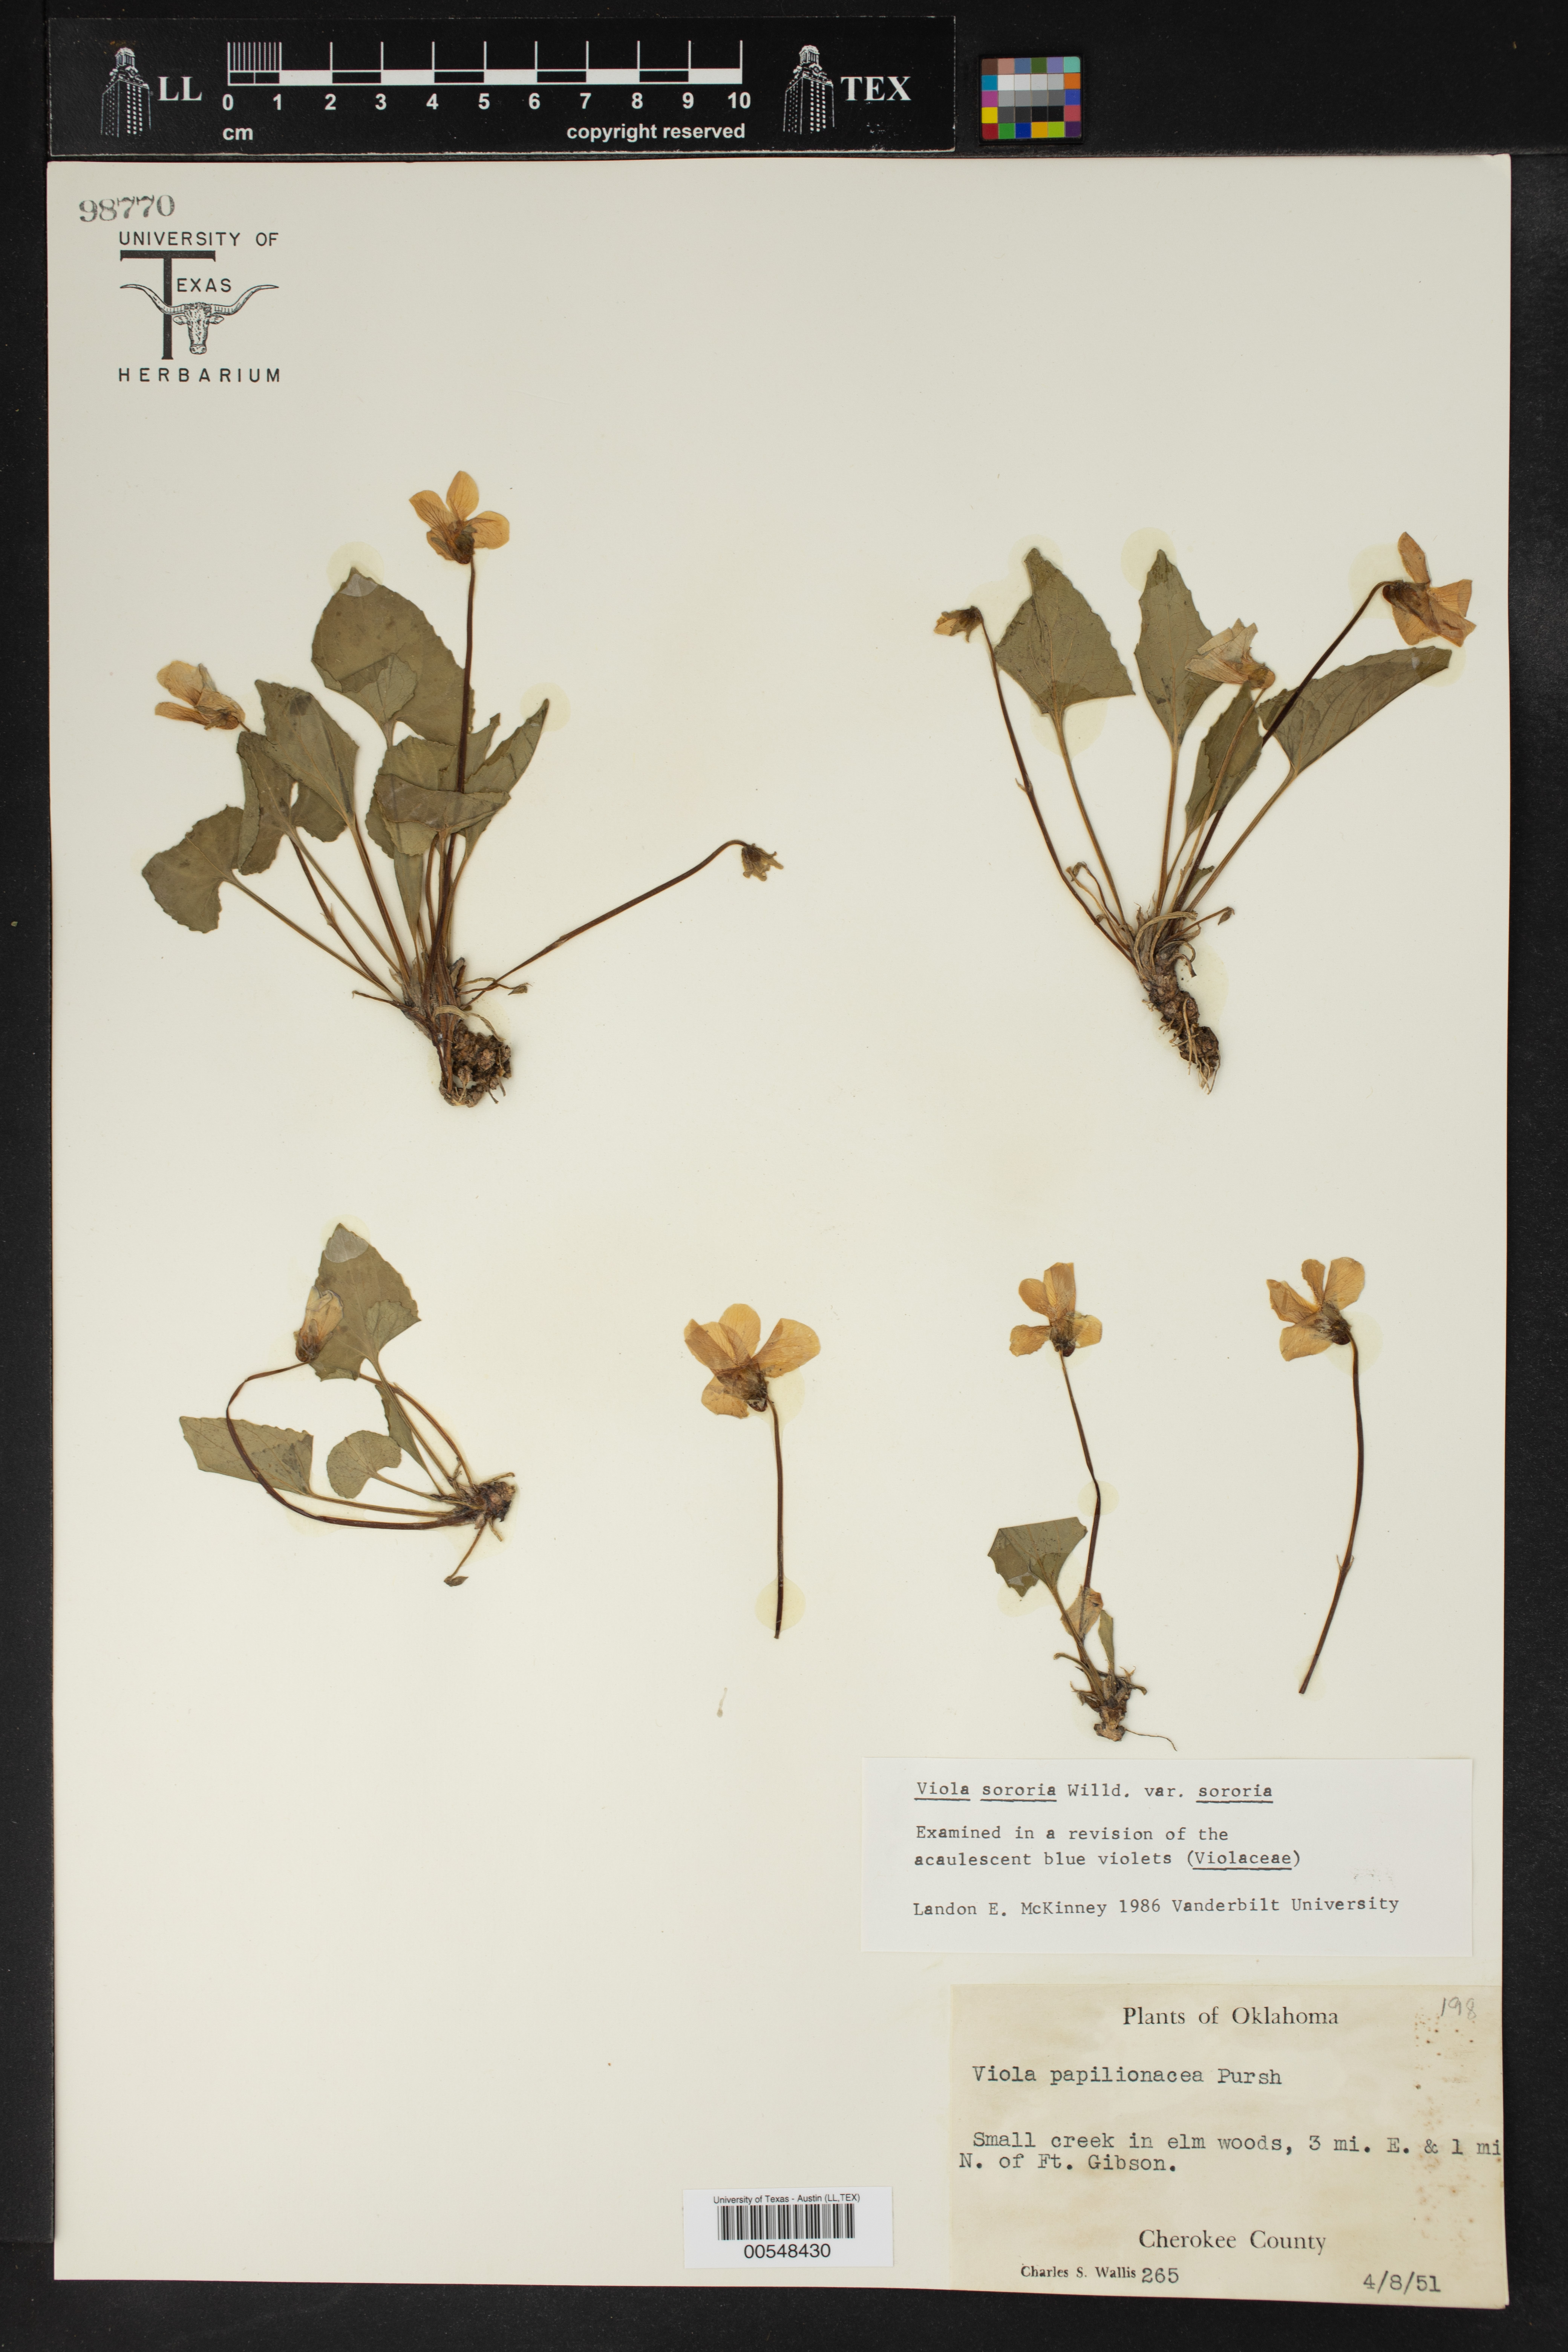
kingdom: Plantae
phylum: Tracheophyta
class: Magnoliopsida
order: Malpighiales
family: Violaceae
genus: Viola
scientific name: Viola sororia
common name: Dooryard violet
